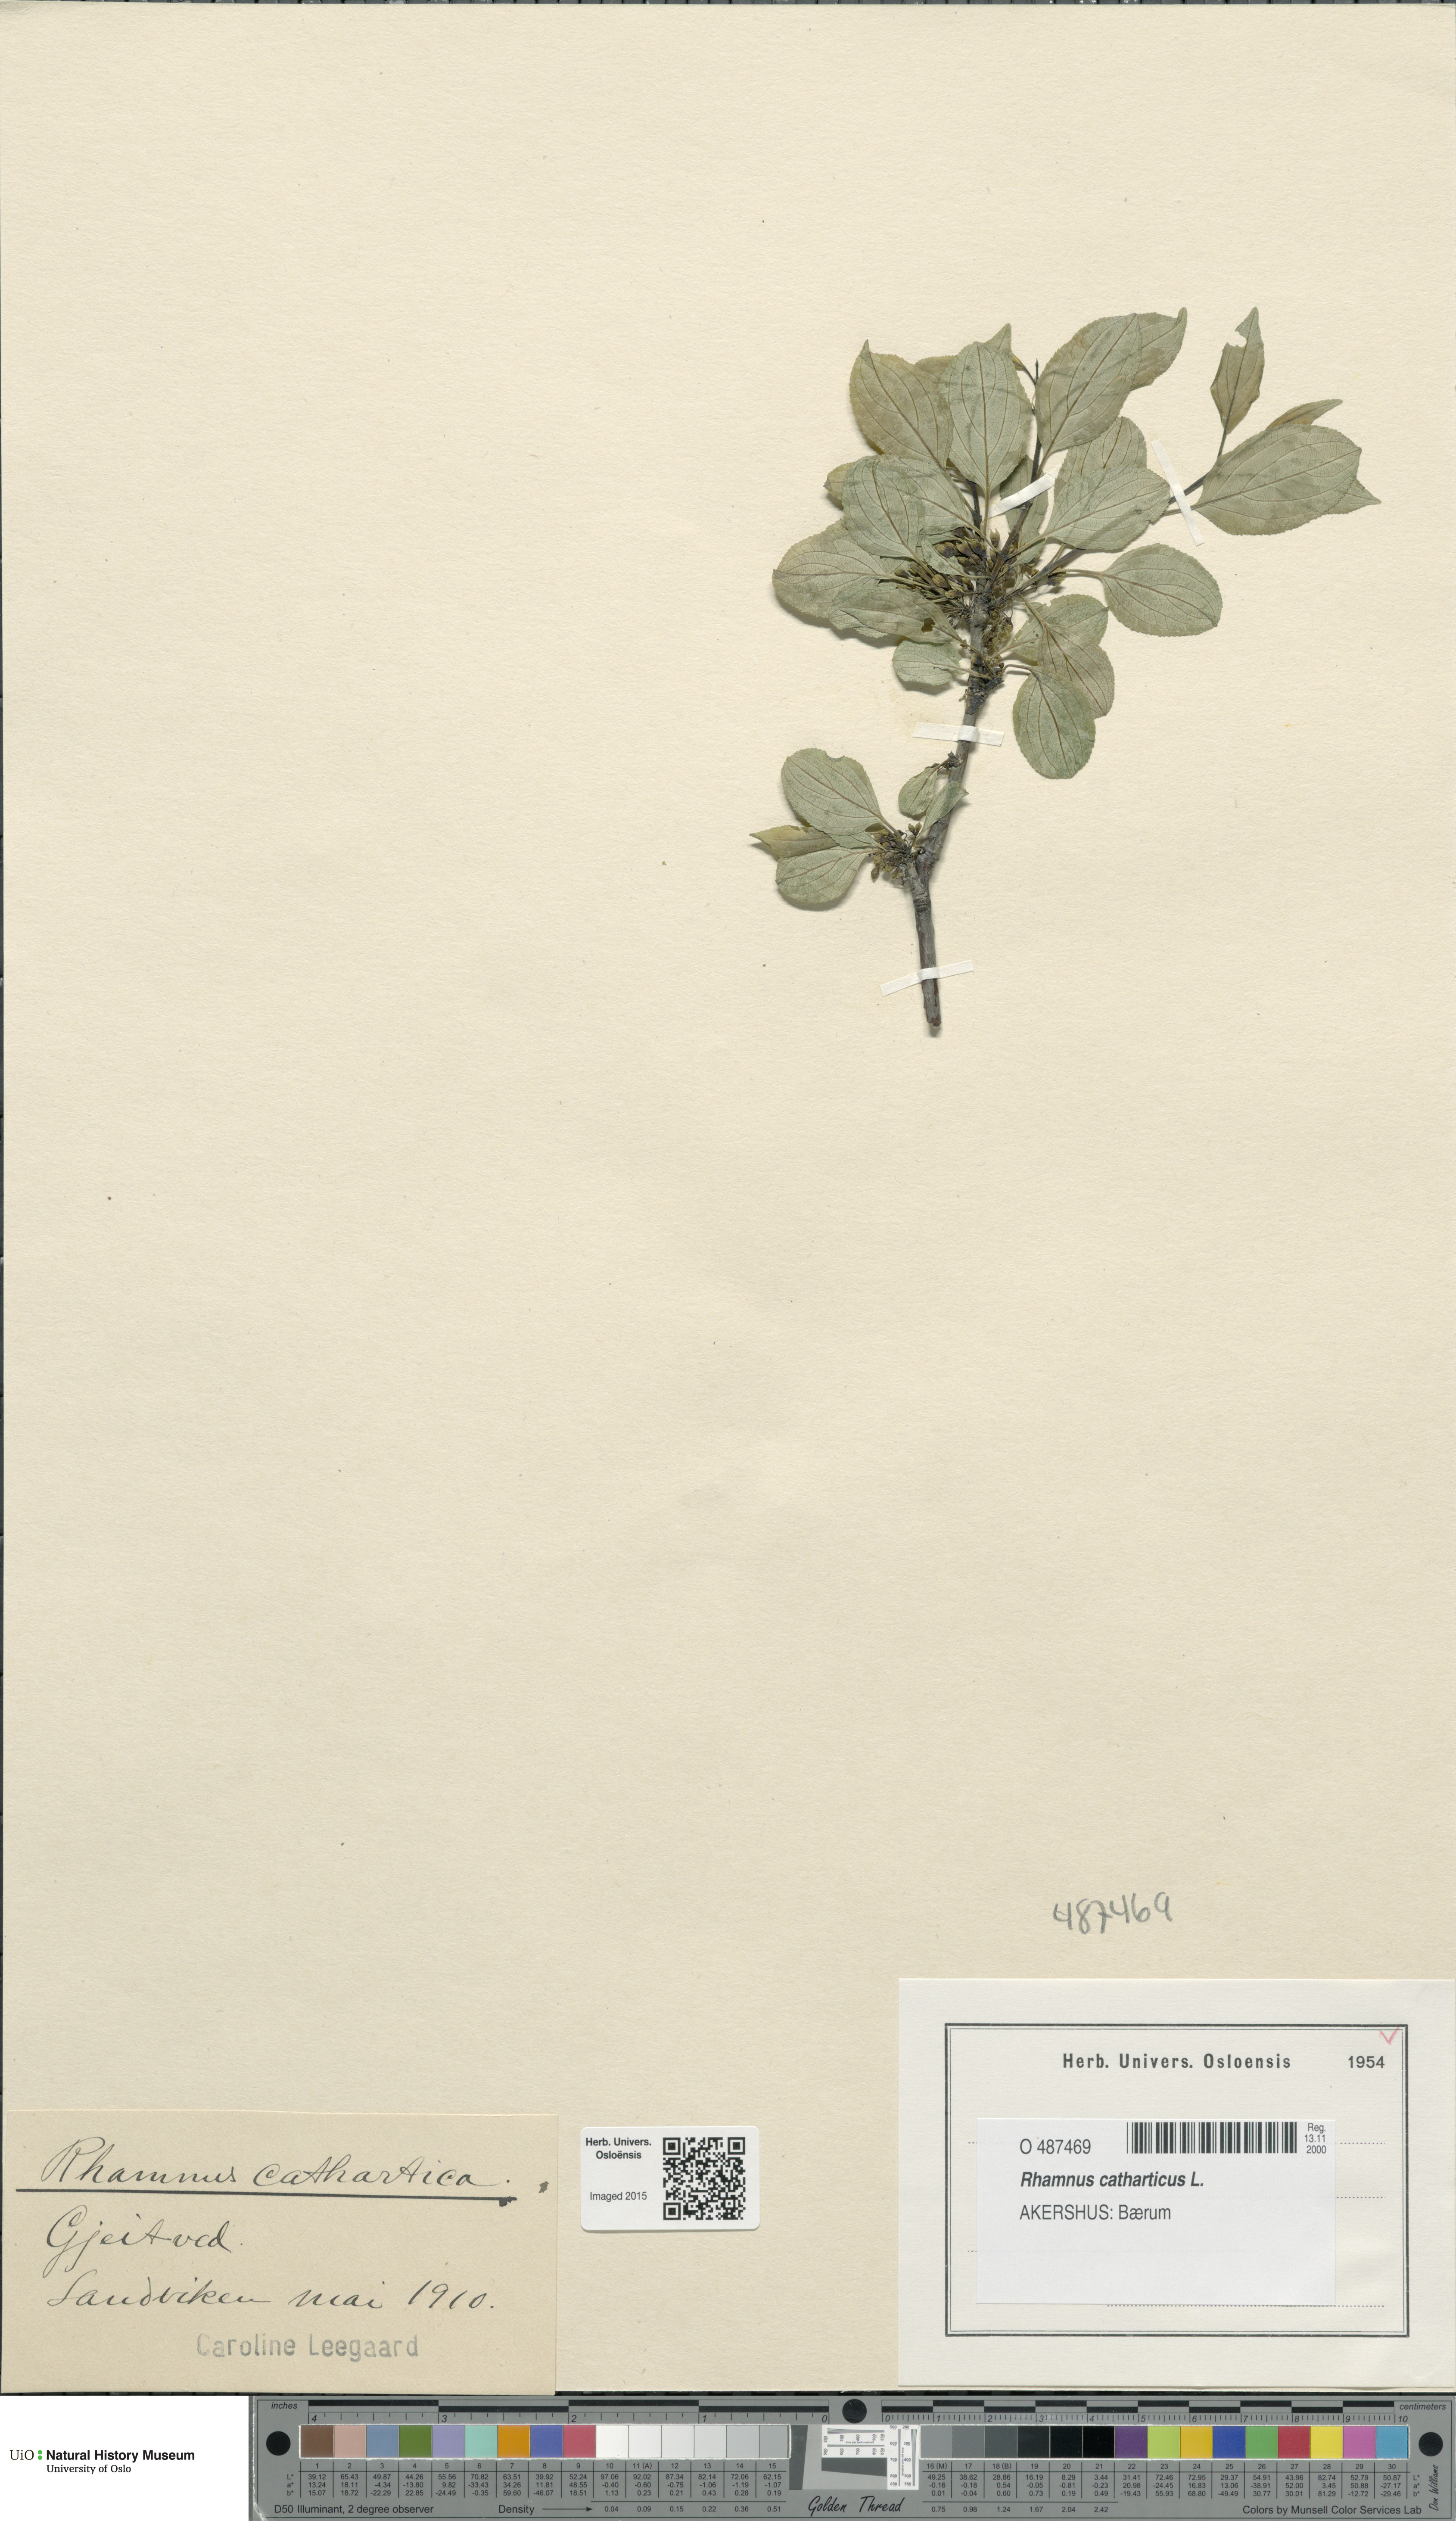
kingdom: Plantae
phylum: Tracheophyta
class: Magnoliopsida
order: Rosales
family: Rhamnaceae
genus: Rhamnus
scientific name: Rhamnus cathartica
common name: Common buckthorn
